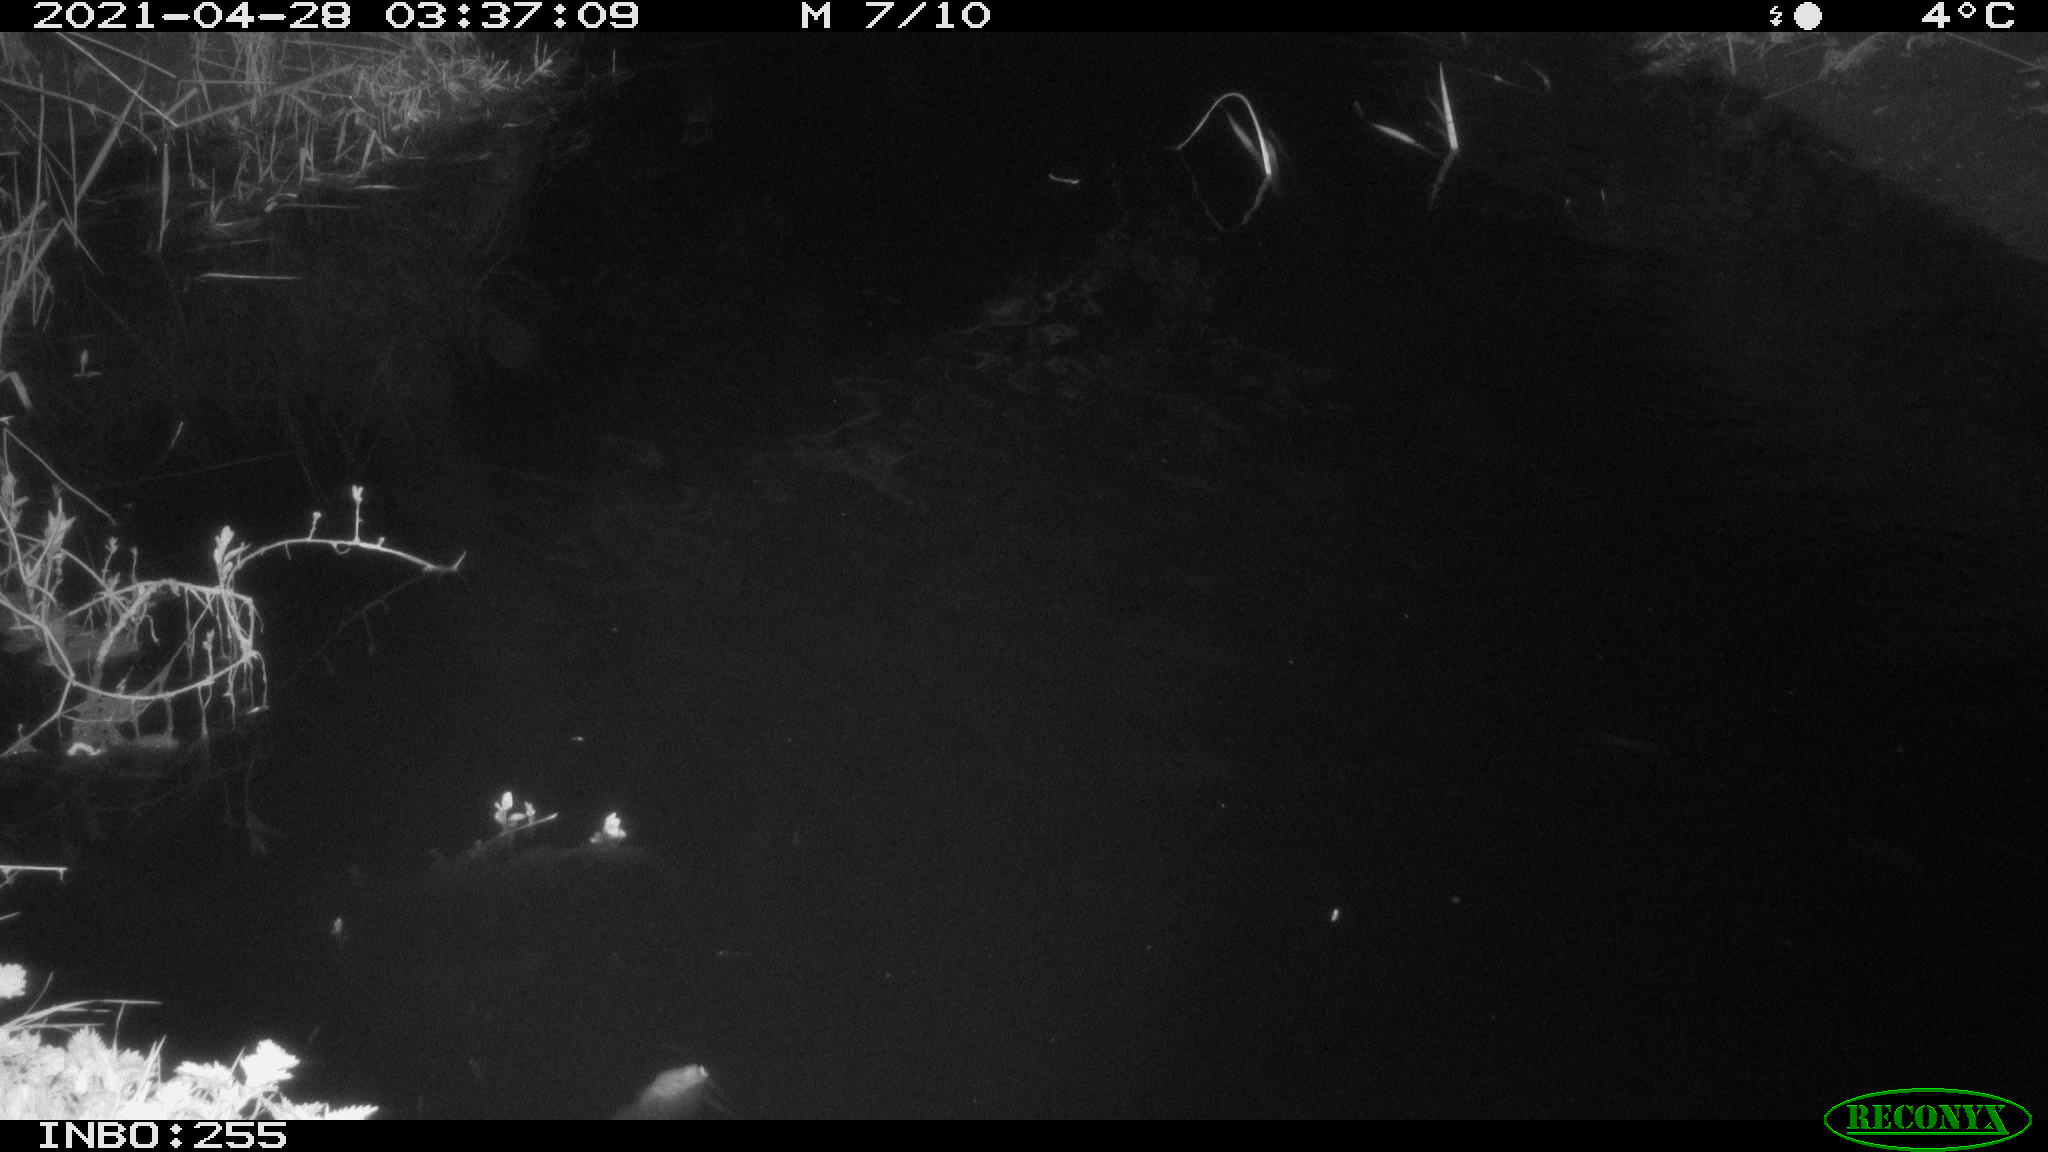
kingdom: Animalia
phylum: Chordata
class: Aves
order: Anseriformes
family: Anatidae
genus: Anas
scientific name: Anas platyrhynchos
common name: Mallard
